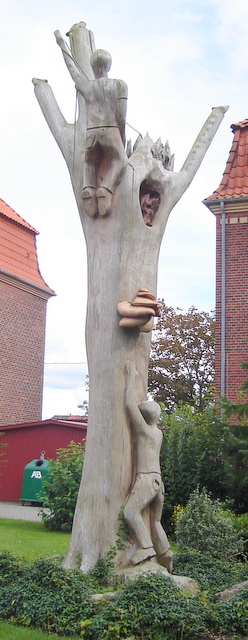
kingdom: Fungi
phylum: Basidiomycota
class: Agaricomycetes
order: Polyporales
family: Polyporaceae
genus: Cerioporus
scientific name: Cerioporus squamosus
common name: skællet stilkporesvamp
